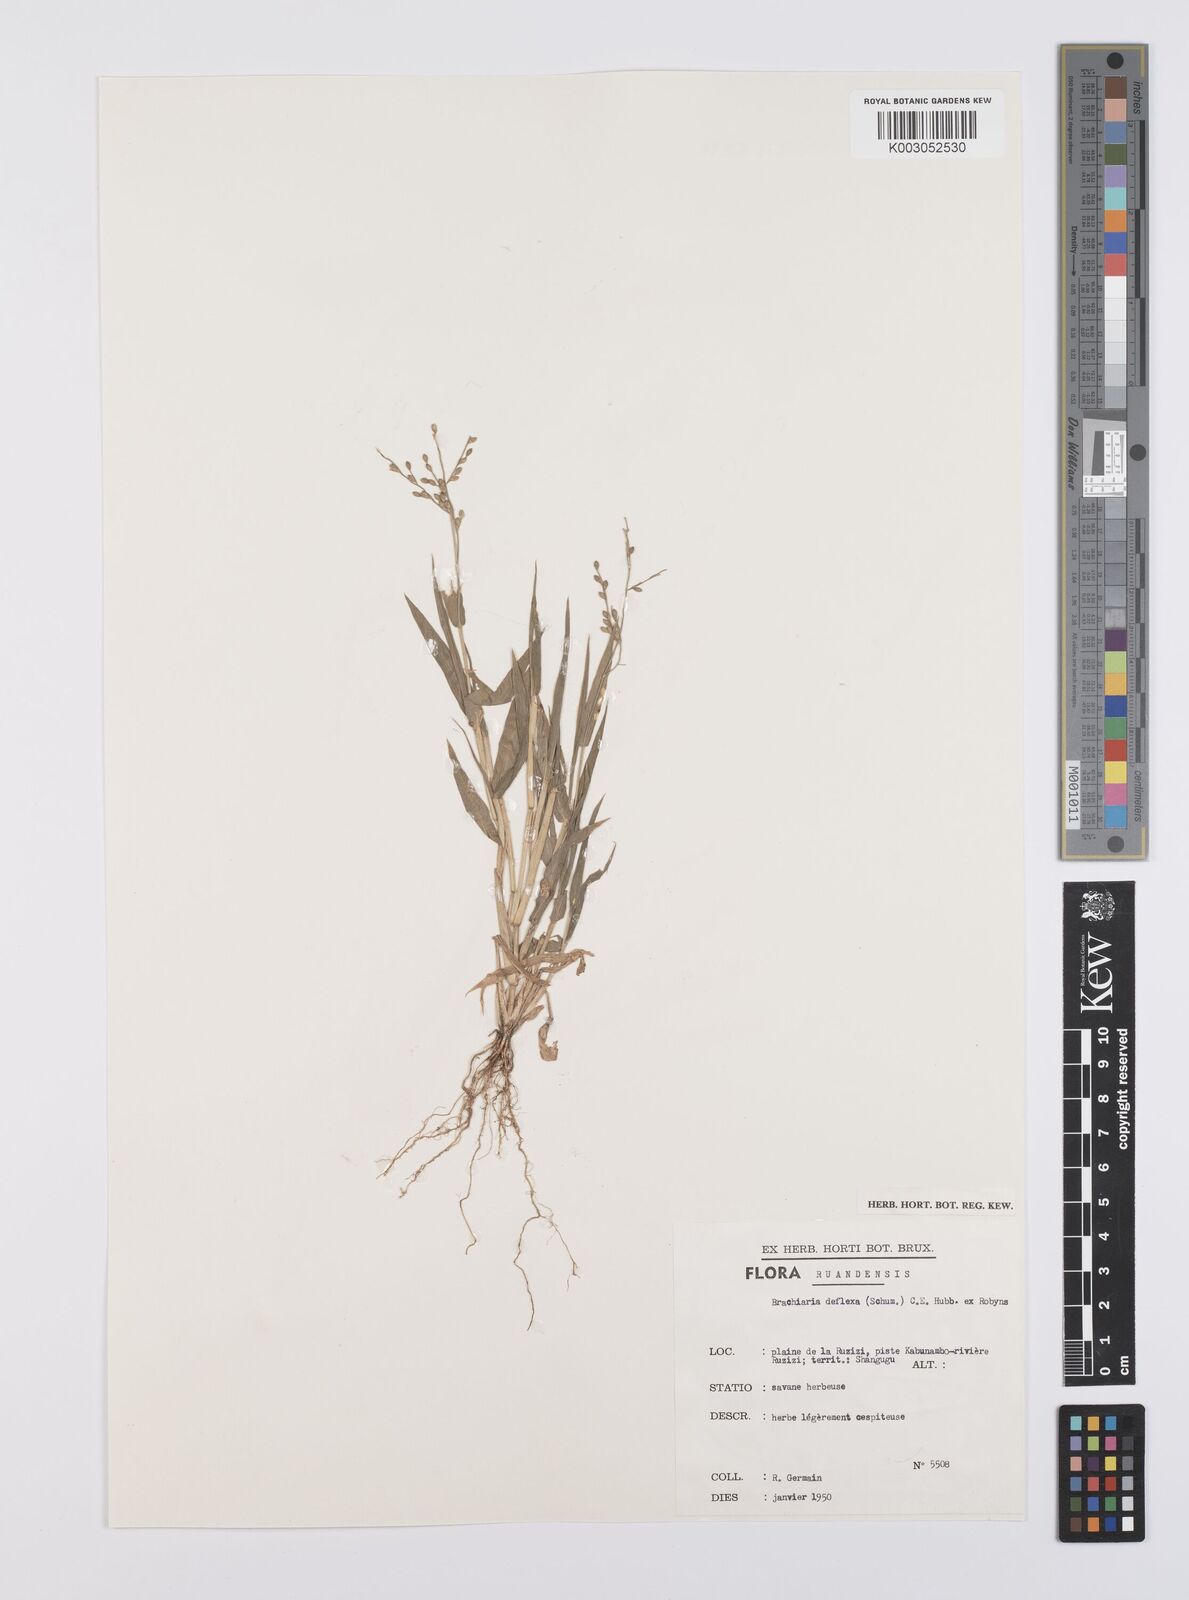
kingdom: Plantae
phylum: Tracheophyta
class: Liliopsida
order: Poales
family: Poaceae
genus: Urochloa
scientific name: Urochloa deflexa
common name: Guinea millet
